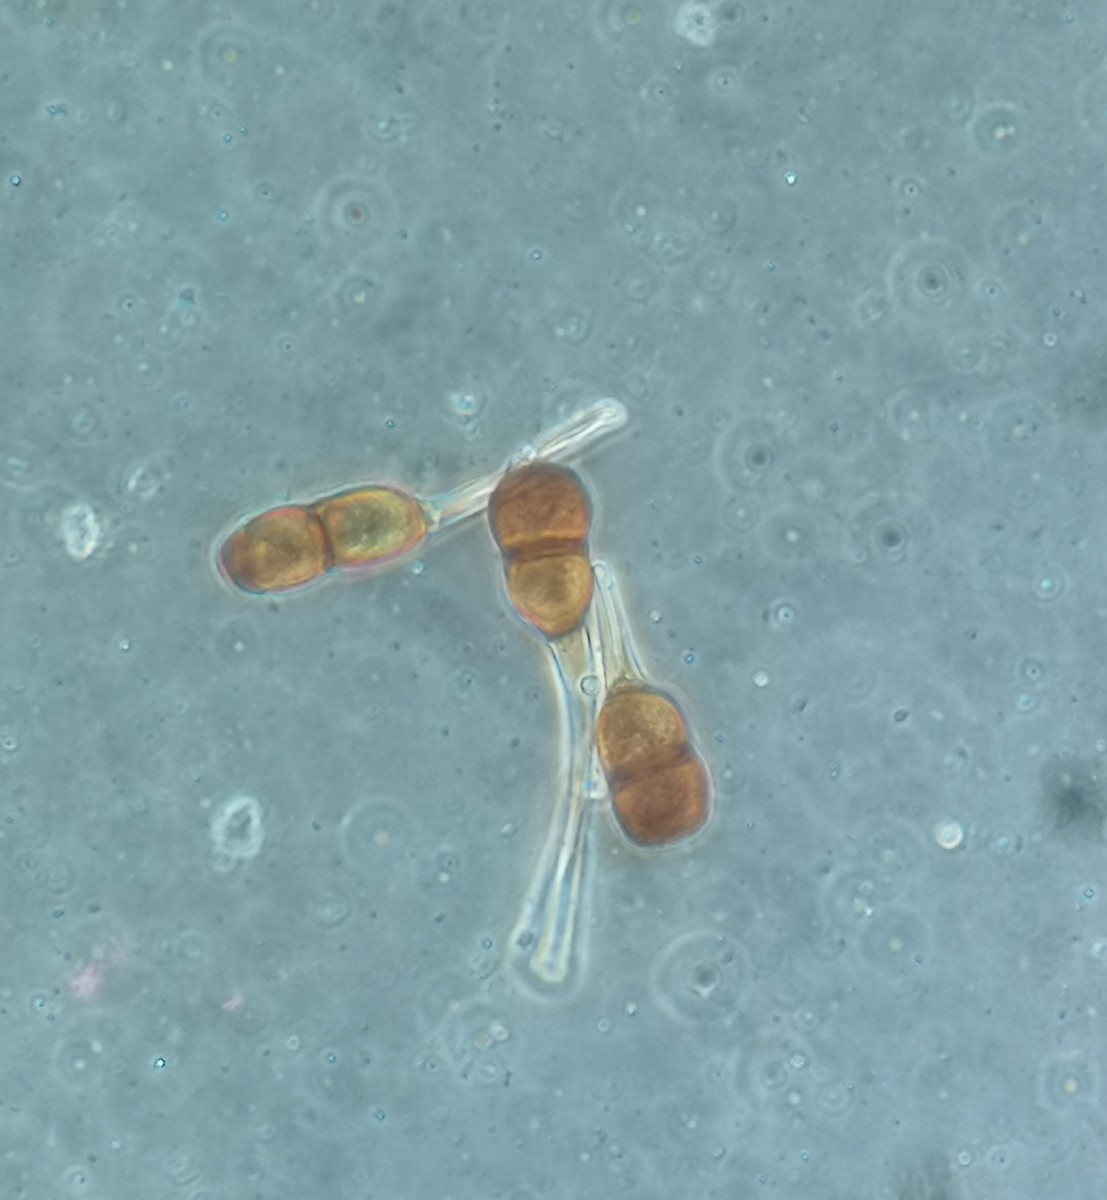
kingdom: Fungi
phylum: Basidiomycota
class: Pucciniomycetes
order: Pucciniales
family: Pucciniaceae
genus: Puccinia
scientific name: Puccinia tanaceti
